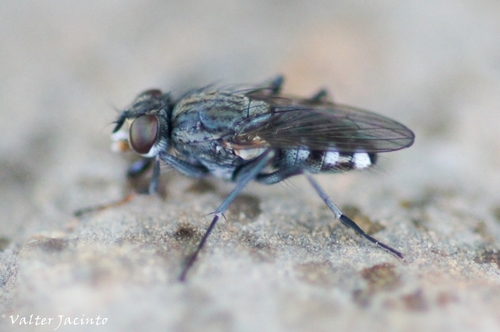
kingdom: Animalia
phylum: Arthropoda
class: Insecta
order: Diptera
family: Muscidae
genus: Lispe
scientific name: Lispe tentaculata
